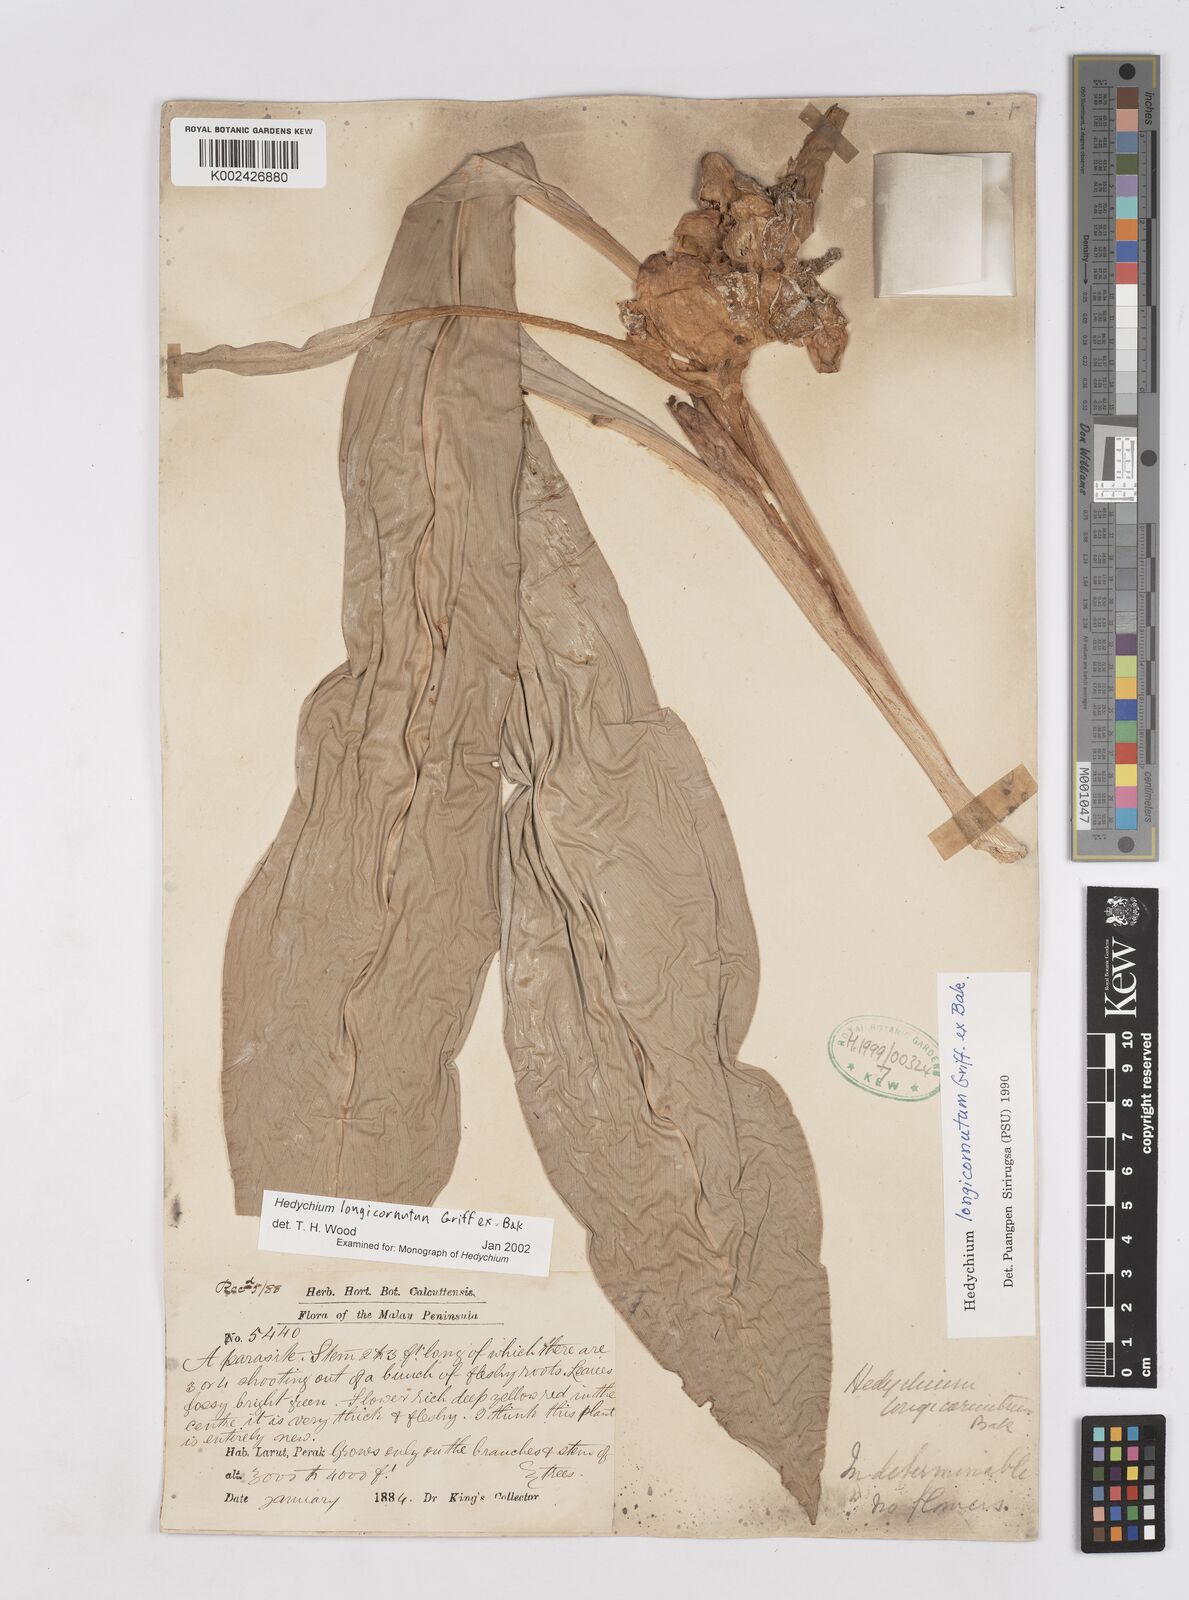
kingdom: Plantae
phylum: Tracheophyta
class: Liliopsida
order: Zingiberales
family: Zingiberaceae
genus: Hedychium
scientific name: Hedychium longicornutum
